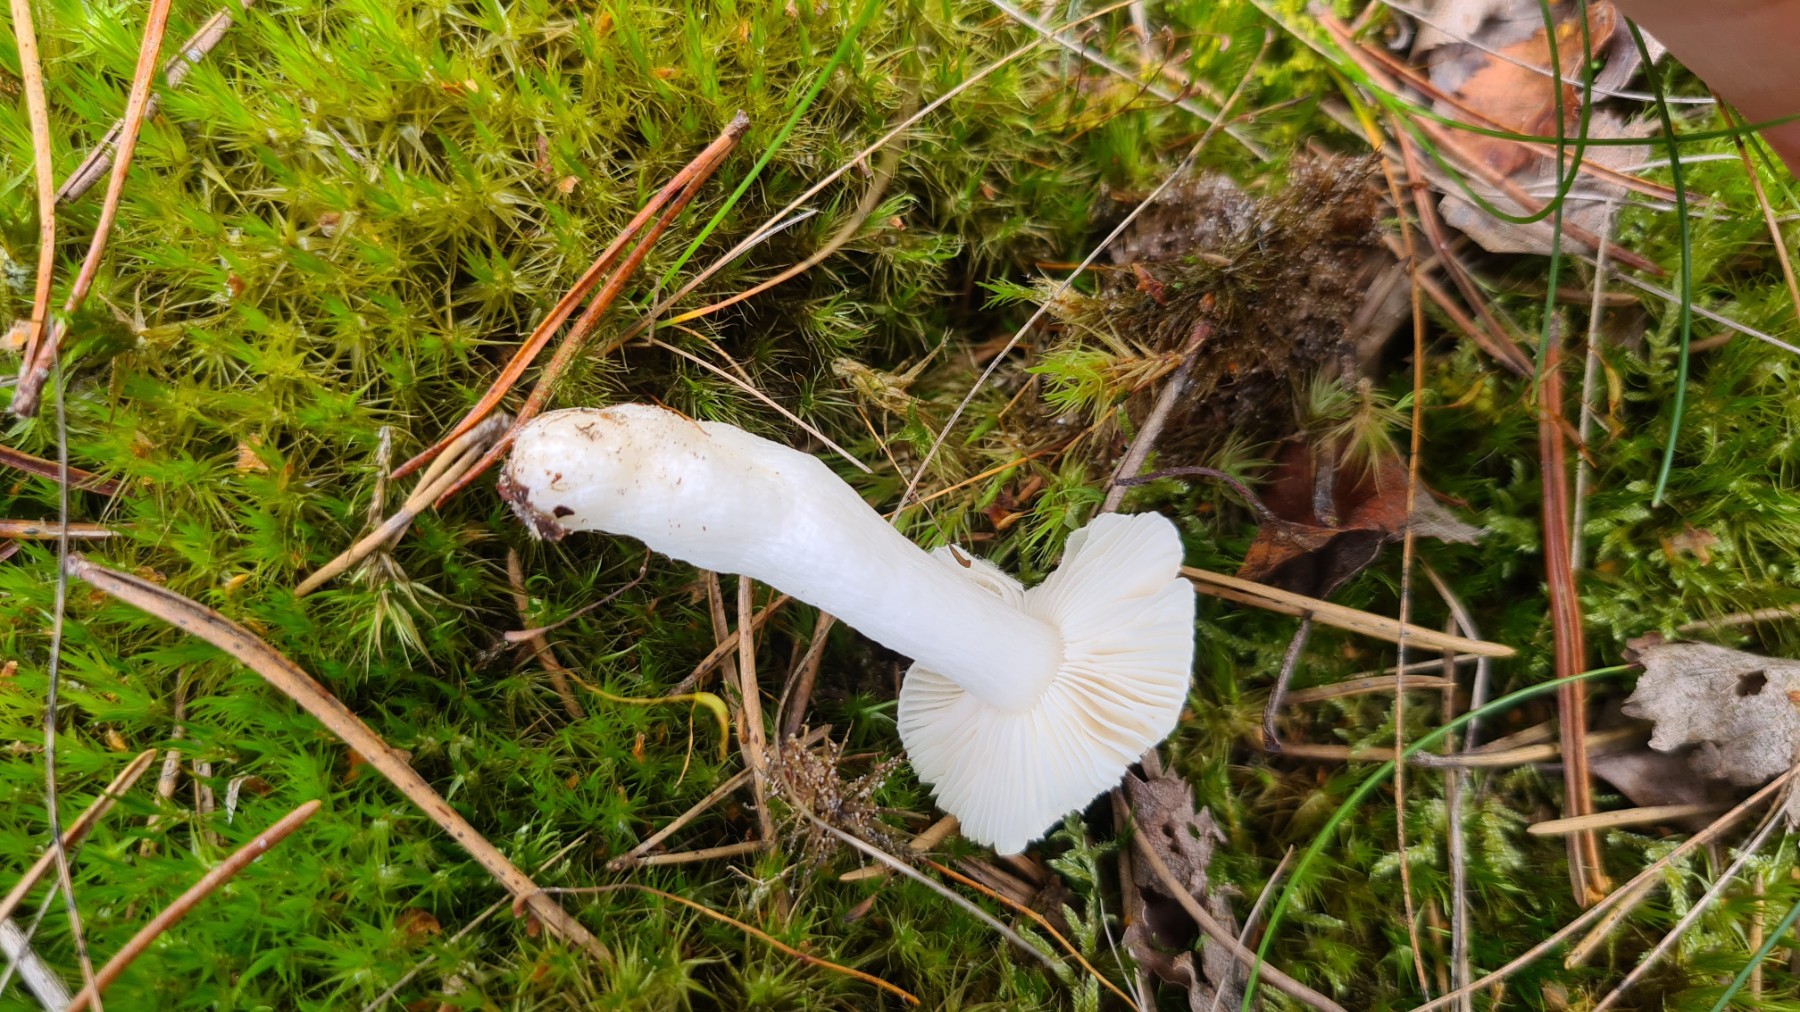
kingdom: Fungi
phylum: Basidiomycota
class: Agaricomycetes
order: Russulales
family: Russulaceae
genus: Russula
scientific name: Russula betularum
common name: bleg gift-skørhat
